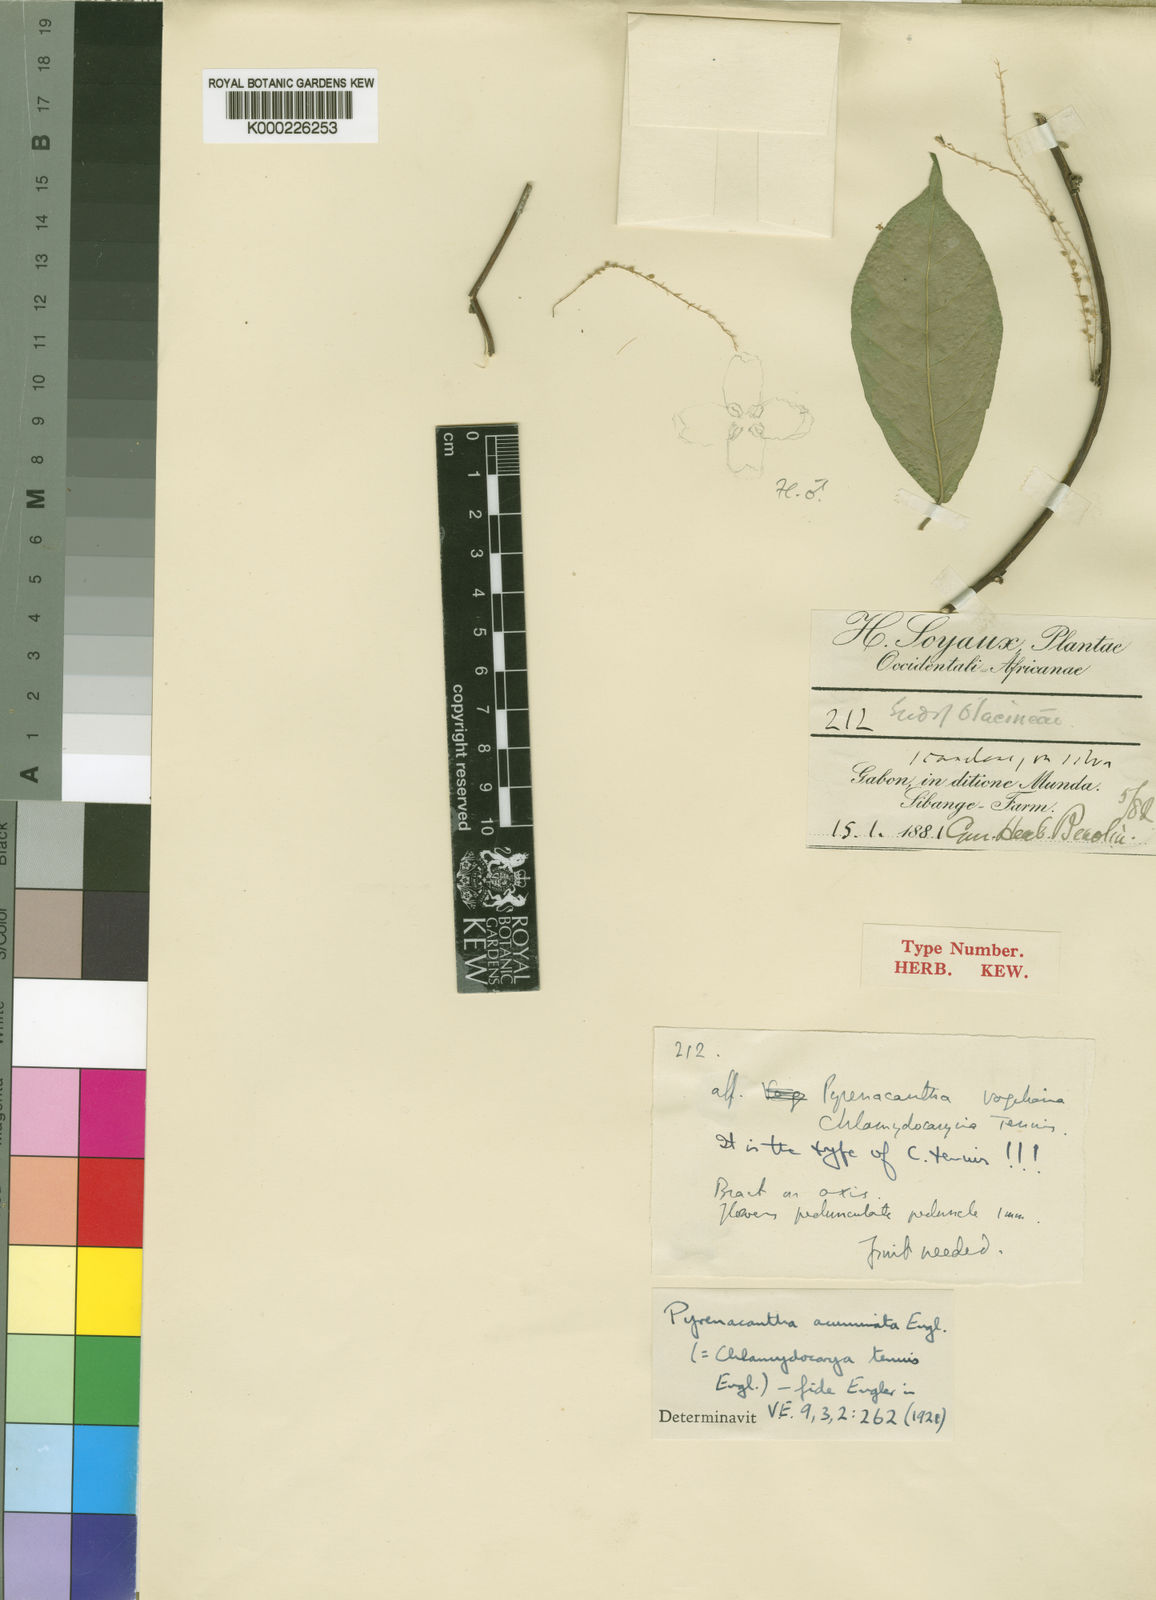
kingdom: Plantae
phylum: Tracheophyta
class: Magnoliopsida
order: Icacinales
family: Icacinaceae
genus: Pyrenacantha
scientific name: Pyrenacantha acuminata
